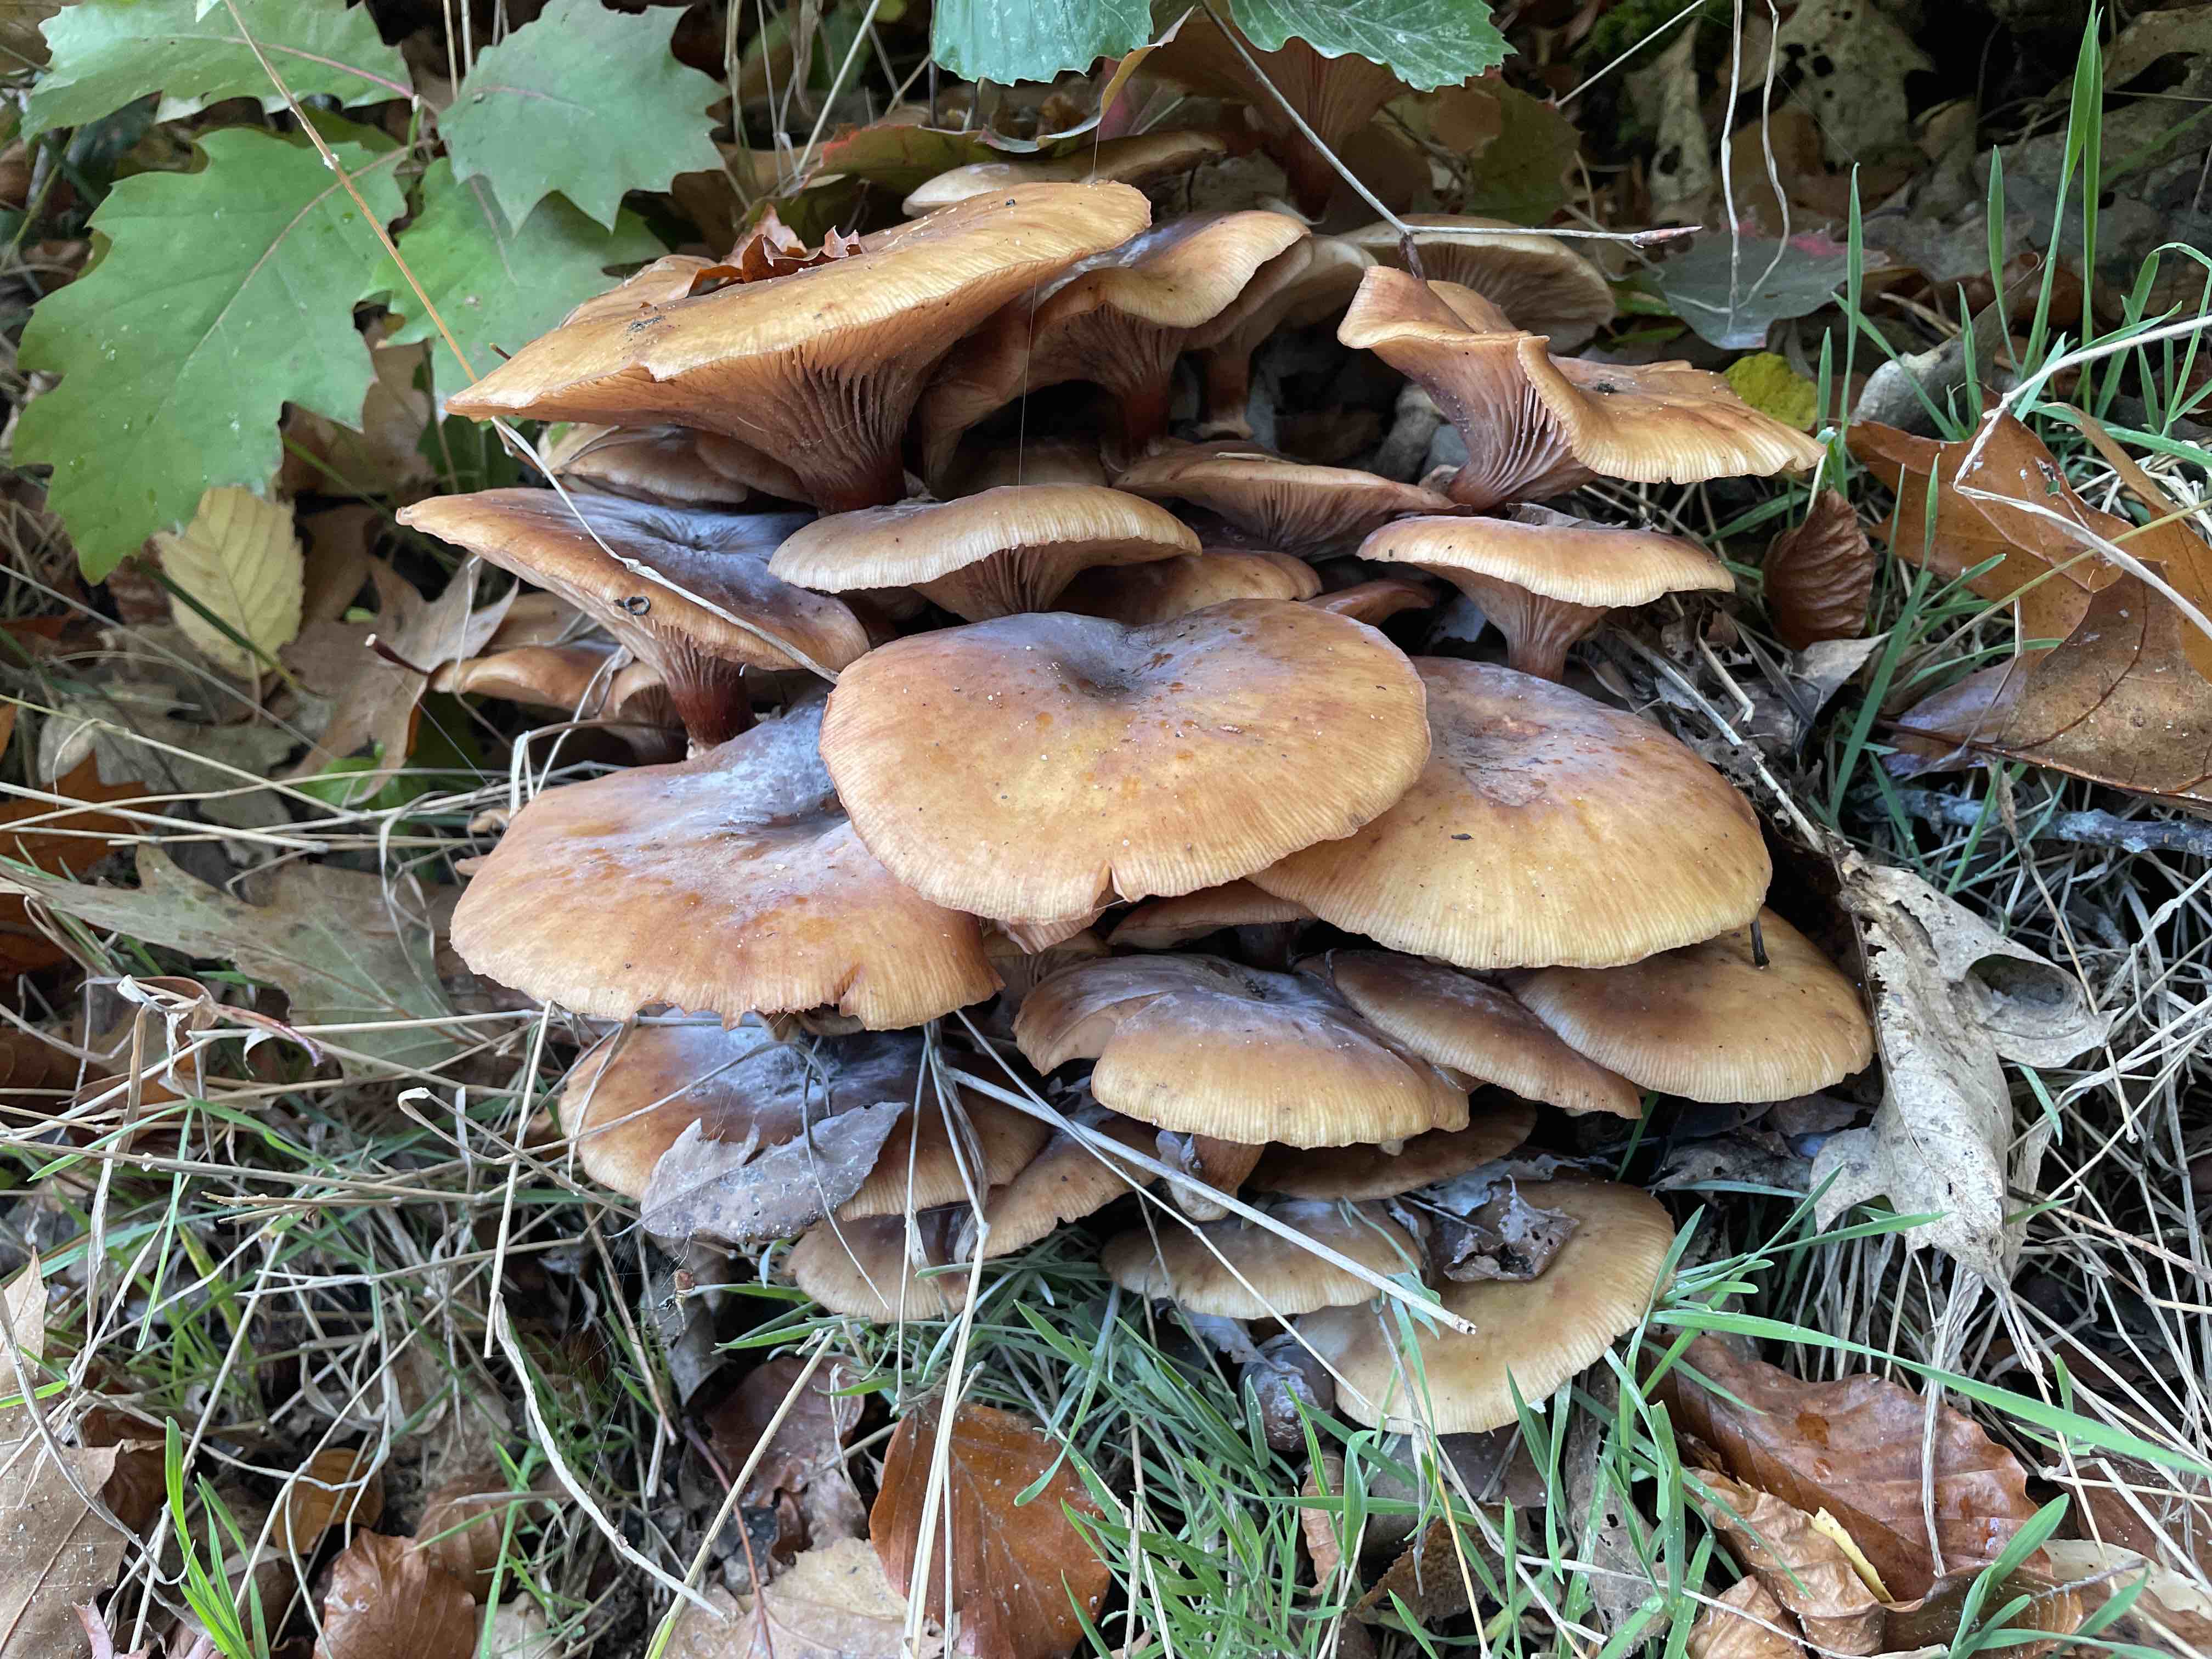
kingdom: Fungi
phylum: Basidiomycota
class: Agaricomycetes
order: Agaricales
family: Physalacriaceae
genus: Armillaria
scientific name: Armillaria
